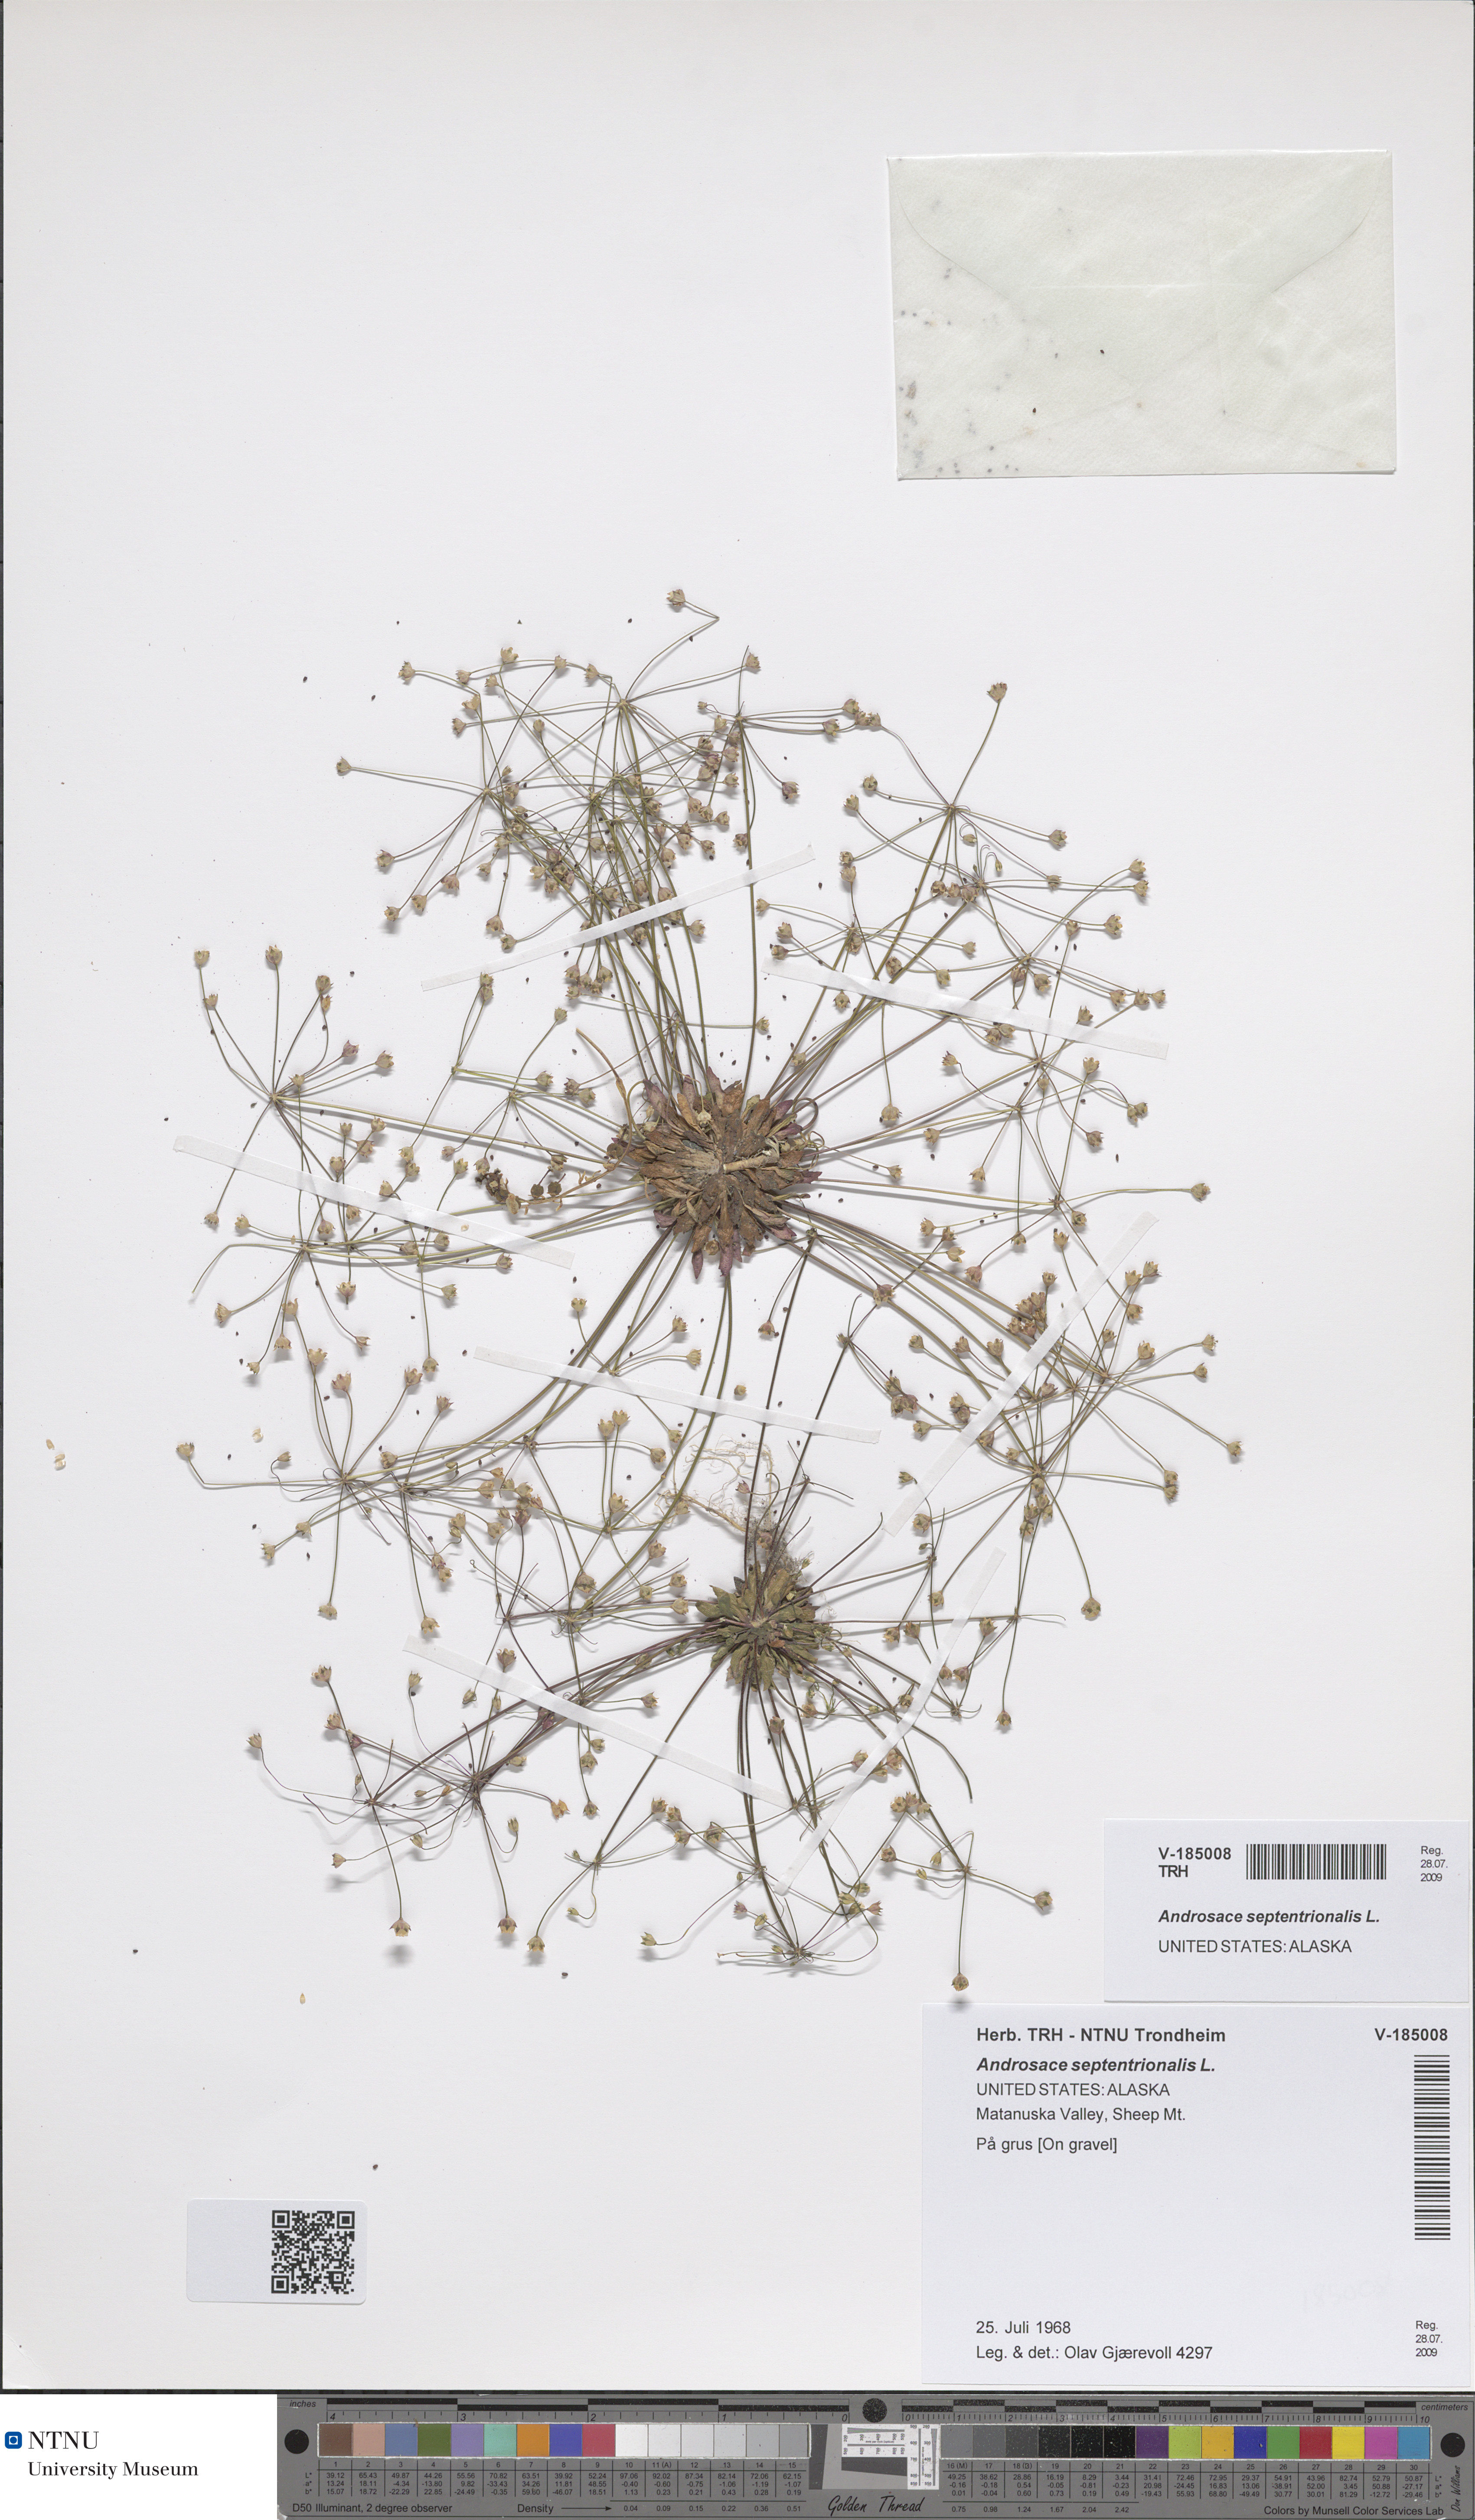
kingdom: Plantae
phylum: Tracheophyta
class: Magnoliopsida
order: Ericales
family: Primulaceae
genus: Androsace
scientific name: Androsace septentrionalis
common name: Hairy northern fairy-candelabra
